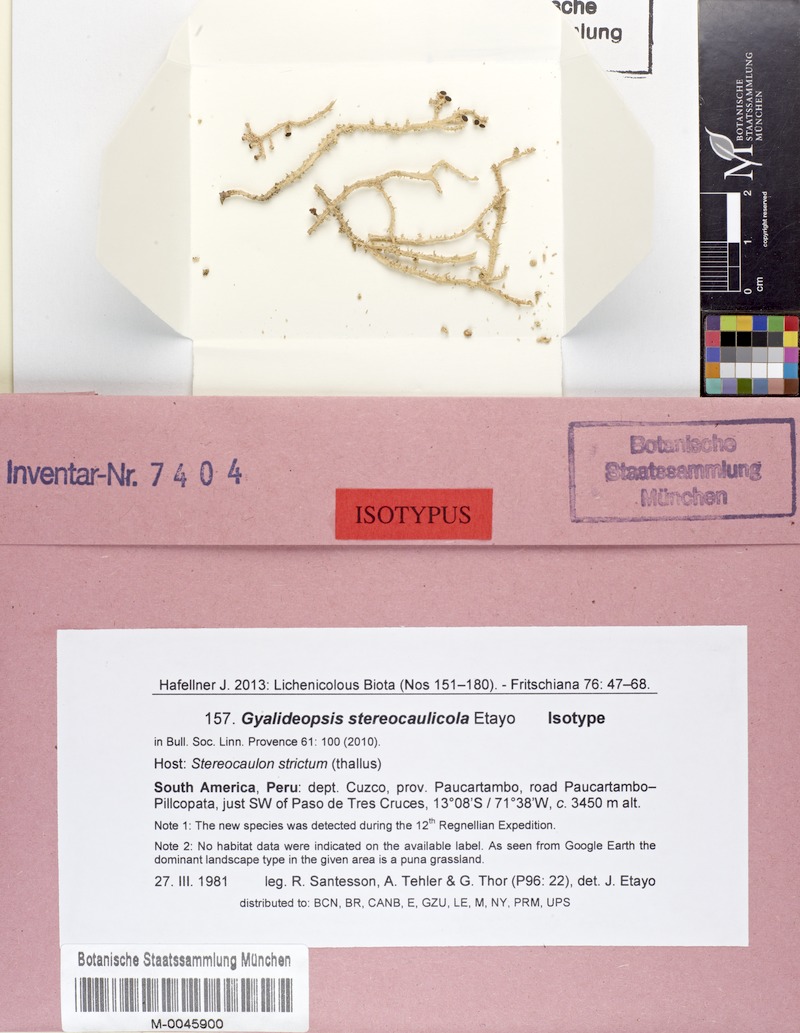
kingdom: Fungi
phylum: Ascomycota
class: Lecanoromycetes
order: Ostropales
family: Gomphillaceae
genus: Paragyalideopsis
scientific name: Paragyalideopsis stereocaulicola
